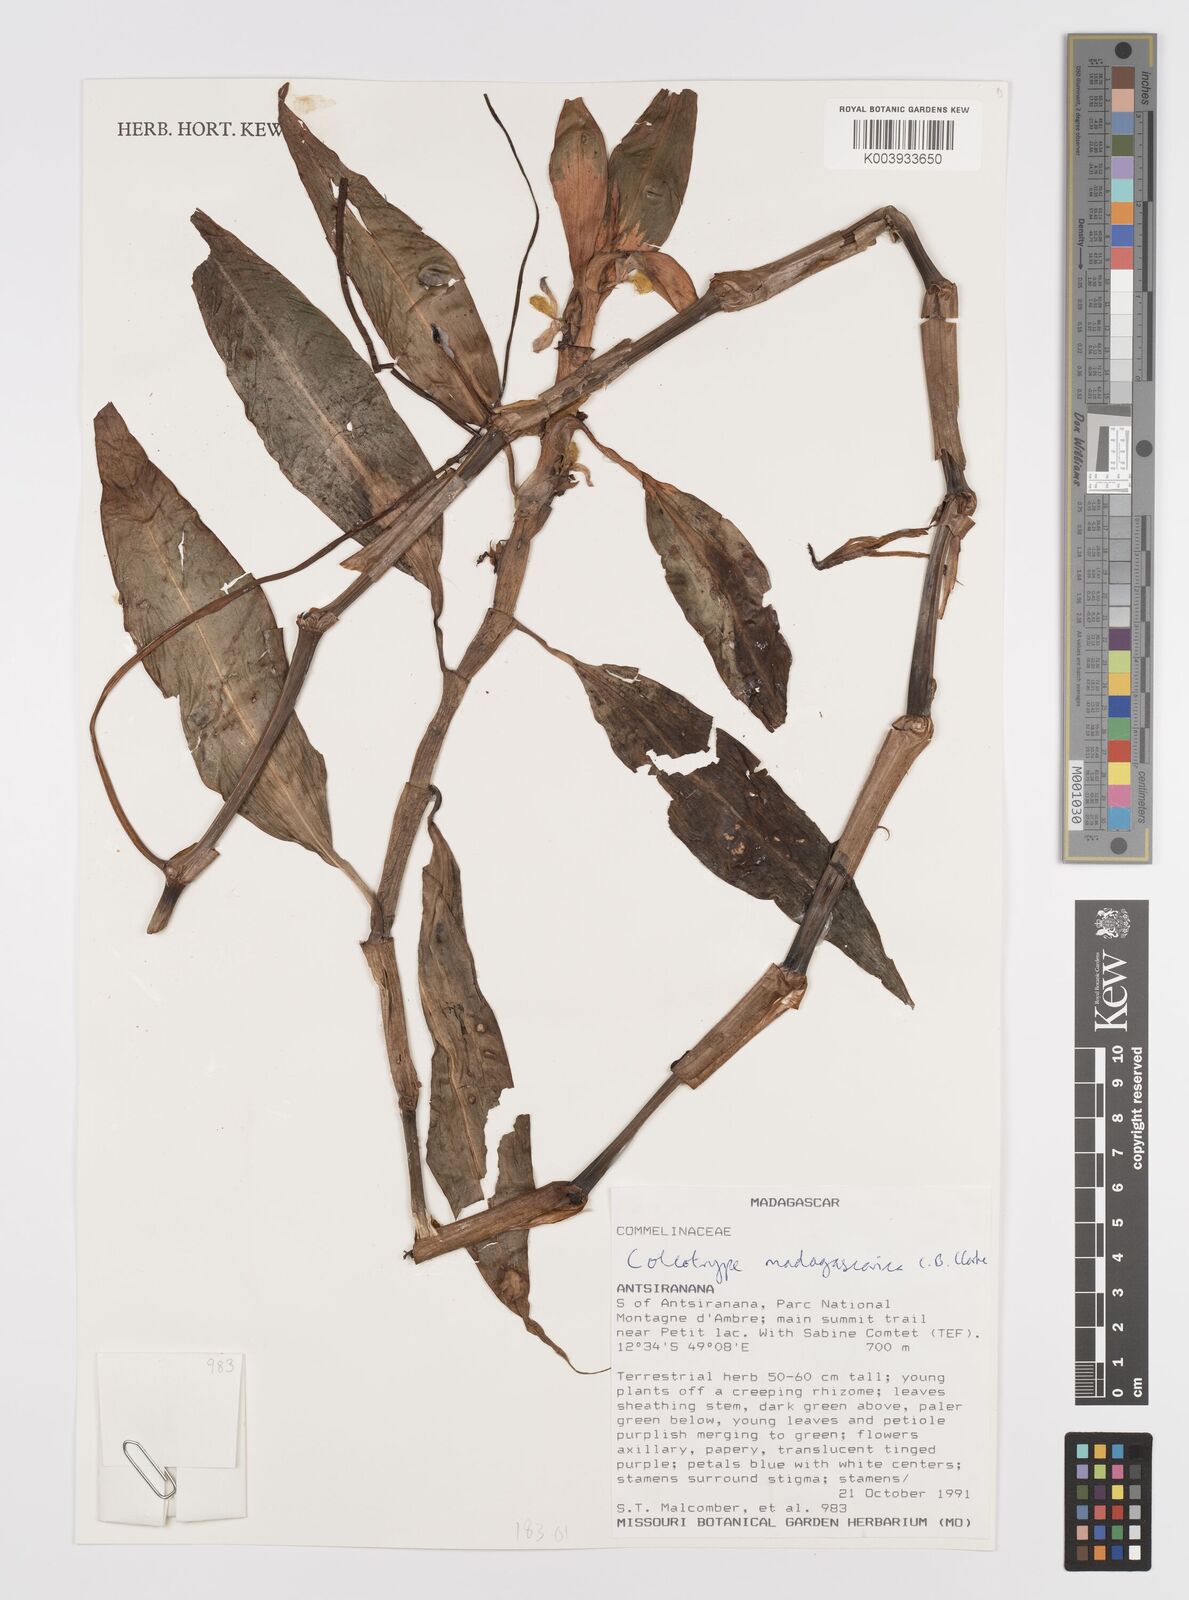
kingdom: Plantae
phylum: Tracheophyta
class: Liliopsida
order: Commelinales
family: Commelinaceae
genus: Coleotrype
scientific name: Coleotrype madagascarica
